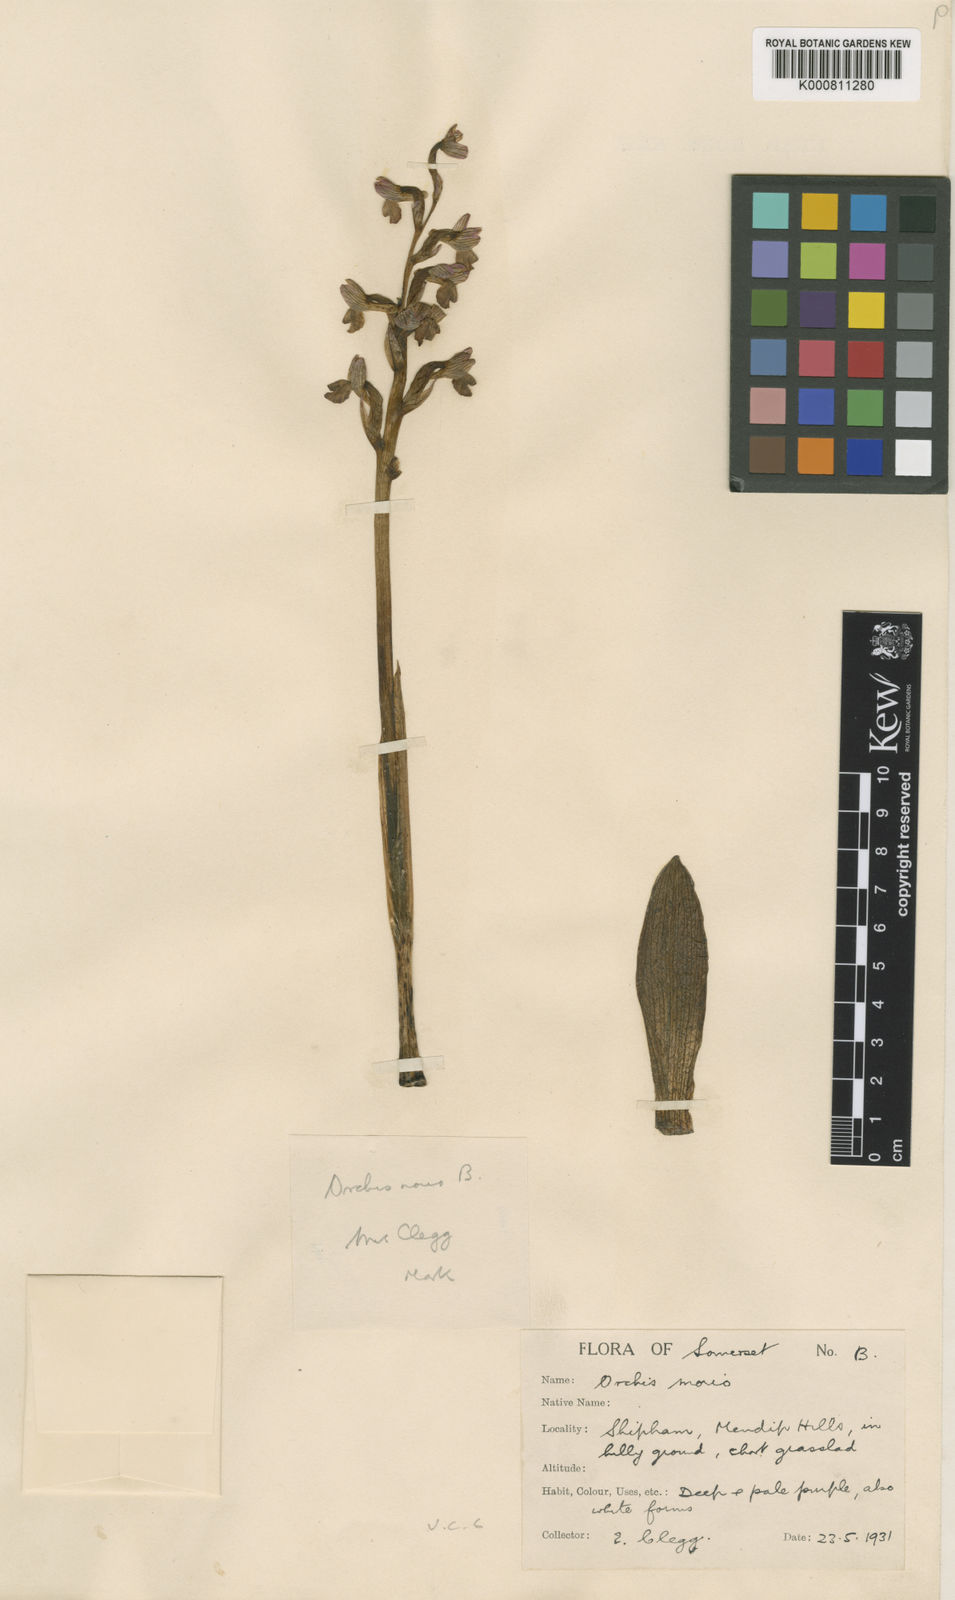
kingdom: Plantae
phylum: Tracheophyta
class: Liliopsida
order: Asparagales
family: Orchidaceae
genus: Anacamptis
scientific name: Anacamptis morio
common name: Green-winged orchid
